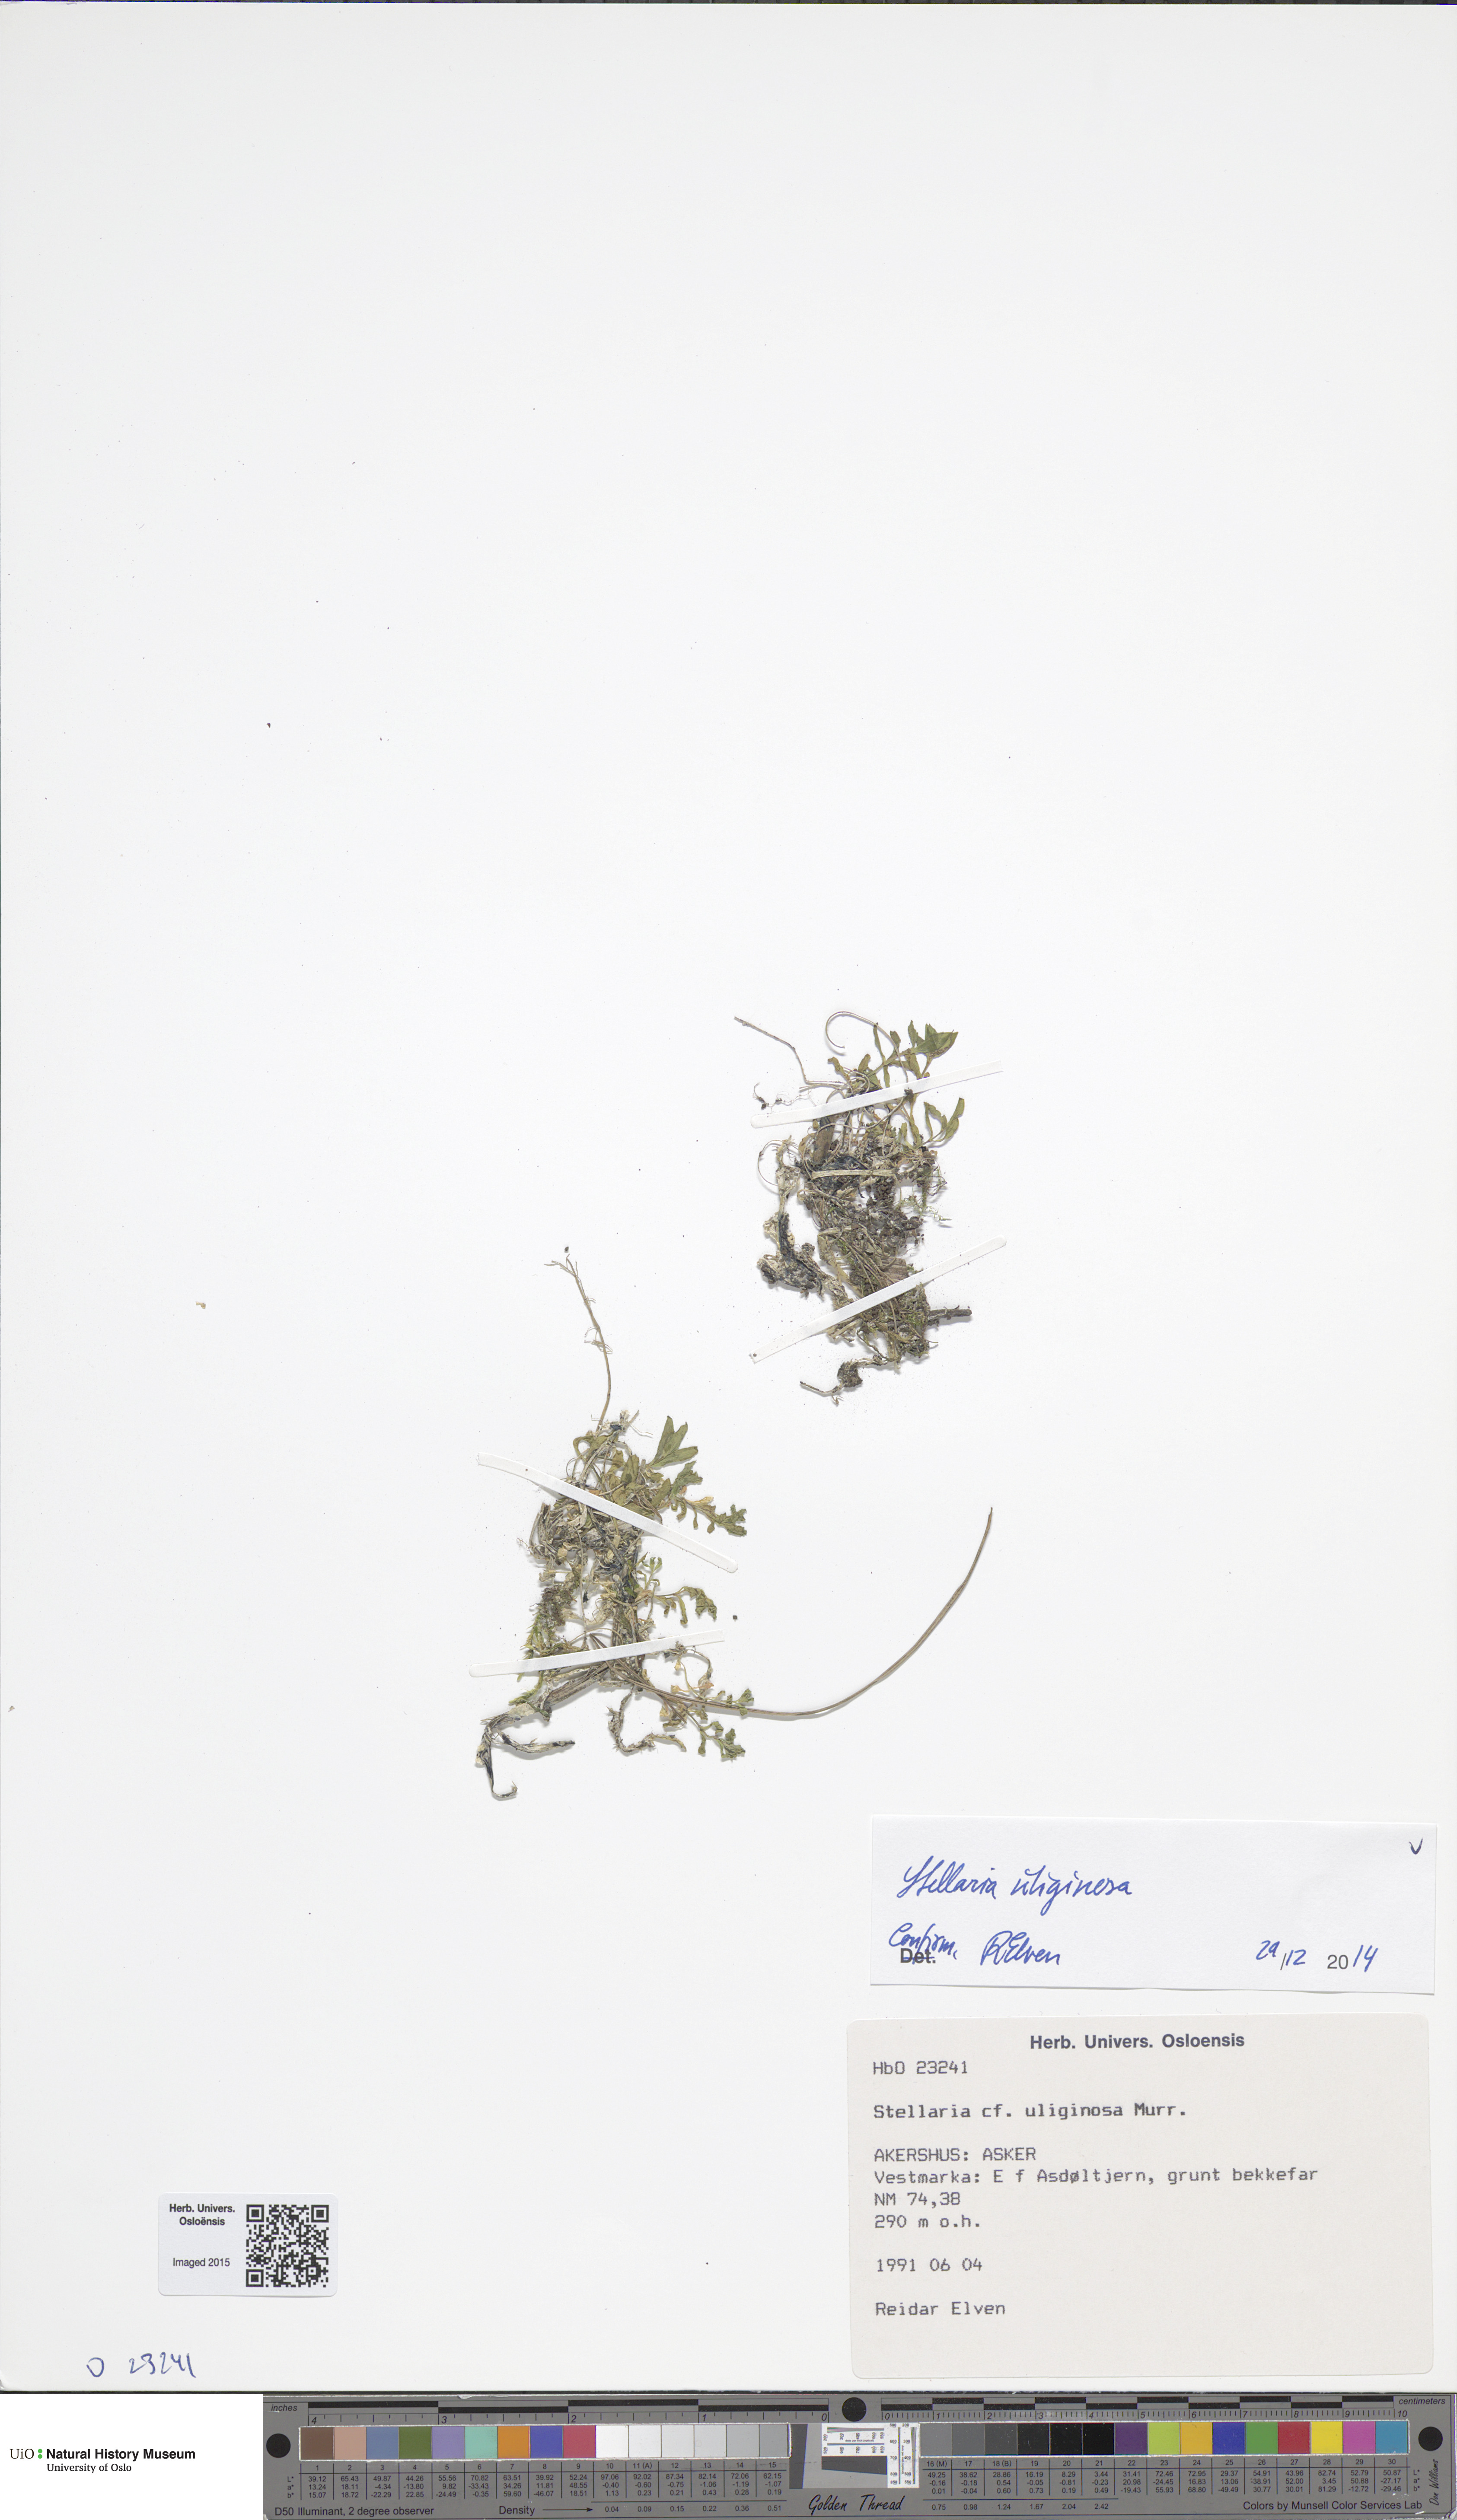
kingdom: Plantae
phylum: Tracheophyta
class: Magnoliopsida
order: Caryophyllales
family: Caryophyllaceae
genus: Stellaria
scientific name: Stellaria alsine
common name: Bog stitchwort
